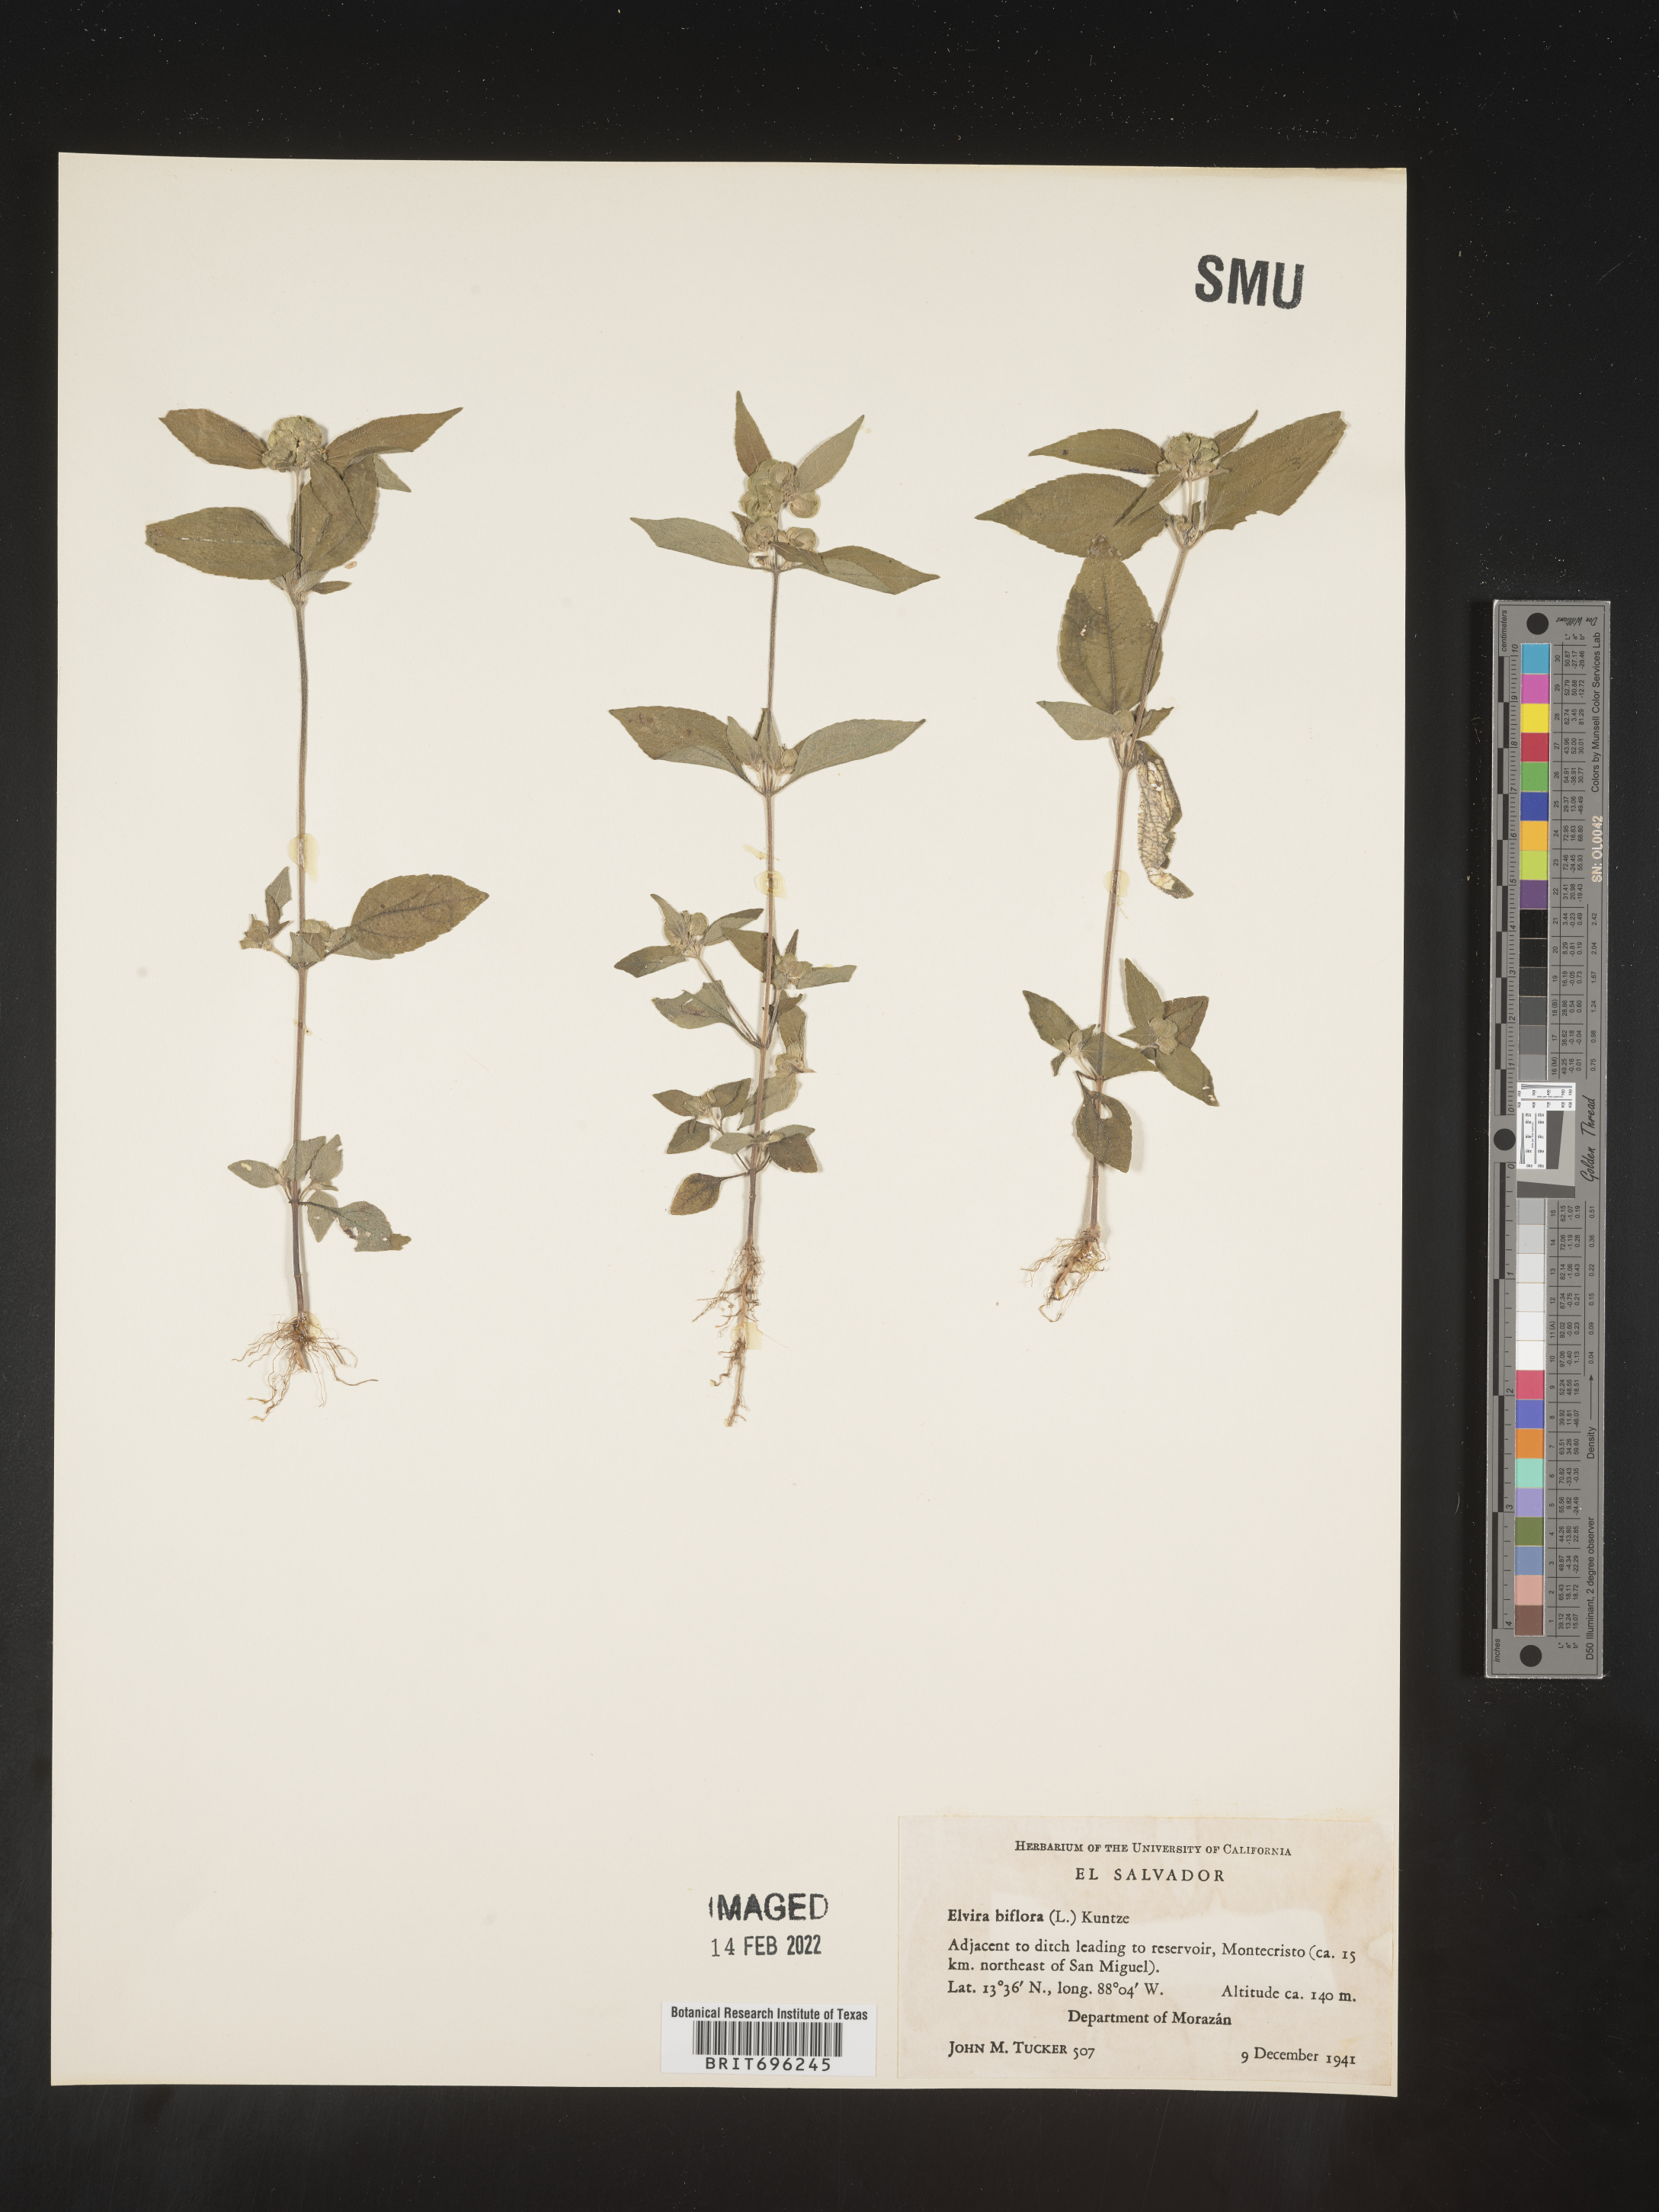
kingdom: Plantae
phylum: Tracheophyta
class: Magnoliopsida
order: Asterales
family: Asteraceae
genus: Delilia
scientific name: Delilia
